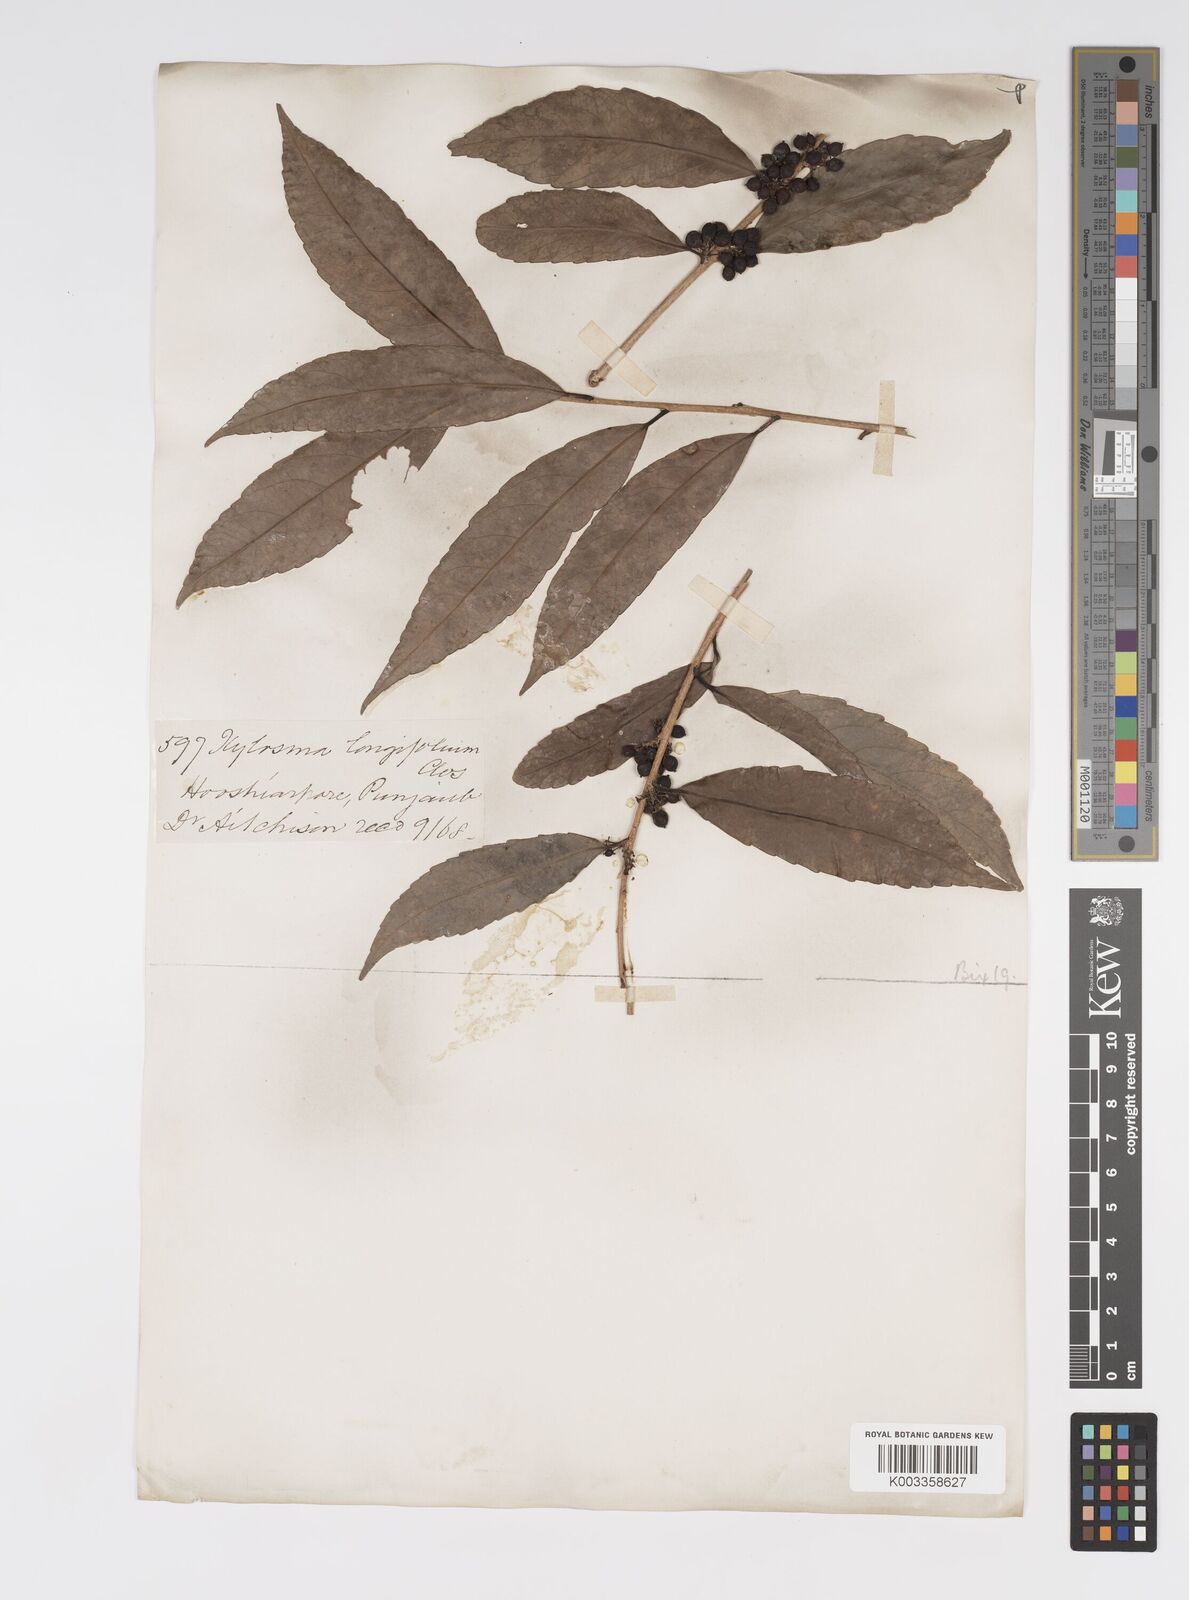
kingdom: Plantae
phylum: Tracheophyta
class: Magnoliopsida
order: Malpighiales
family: Salicaceae
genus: Xylosma
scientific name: Xylosma longifolia
